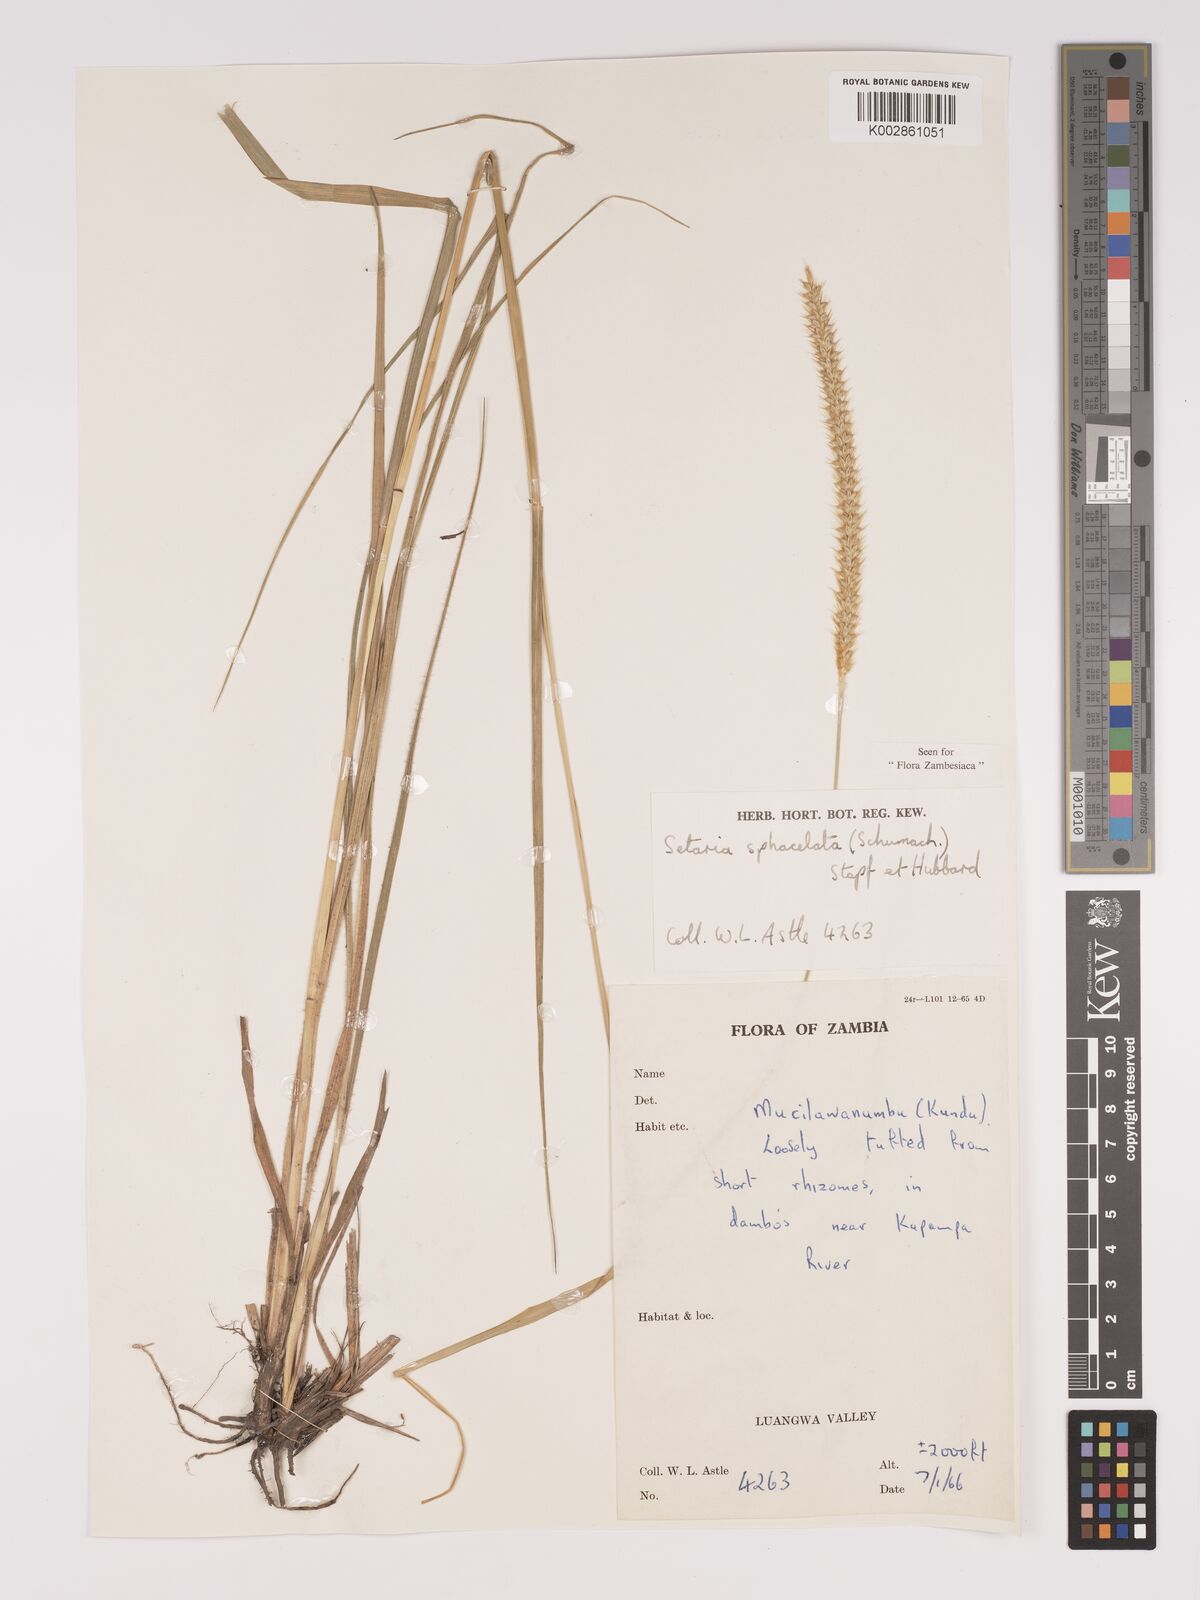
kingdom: Plantae
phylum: Tracheophyta
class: Liliopsida
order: Poales
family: Poaceae
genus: Setaria
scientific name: Setaria sphacelata
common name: African bristlegrass
